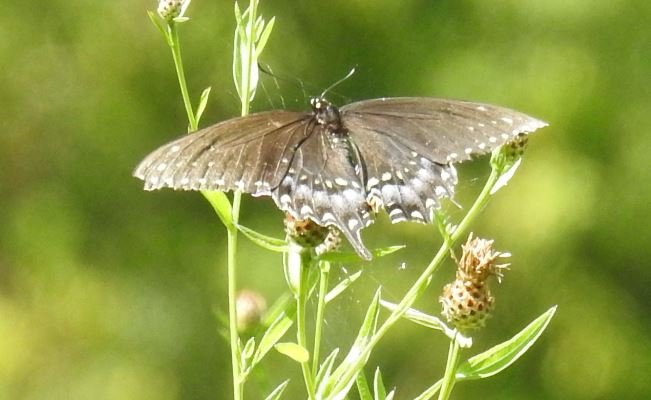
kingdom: Animalia
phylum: Arthropoda
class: Insecta
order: Lepidoptera
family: Papilionidae
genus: Papilio
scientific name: Papilio polyxenes
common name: Black Swallowtail
